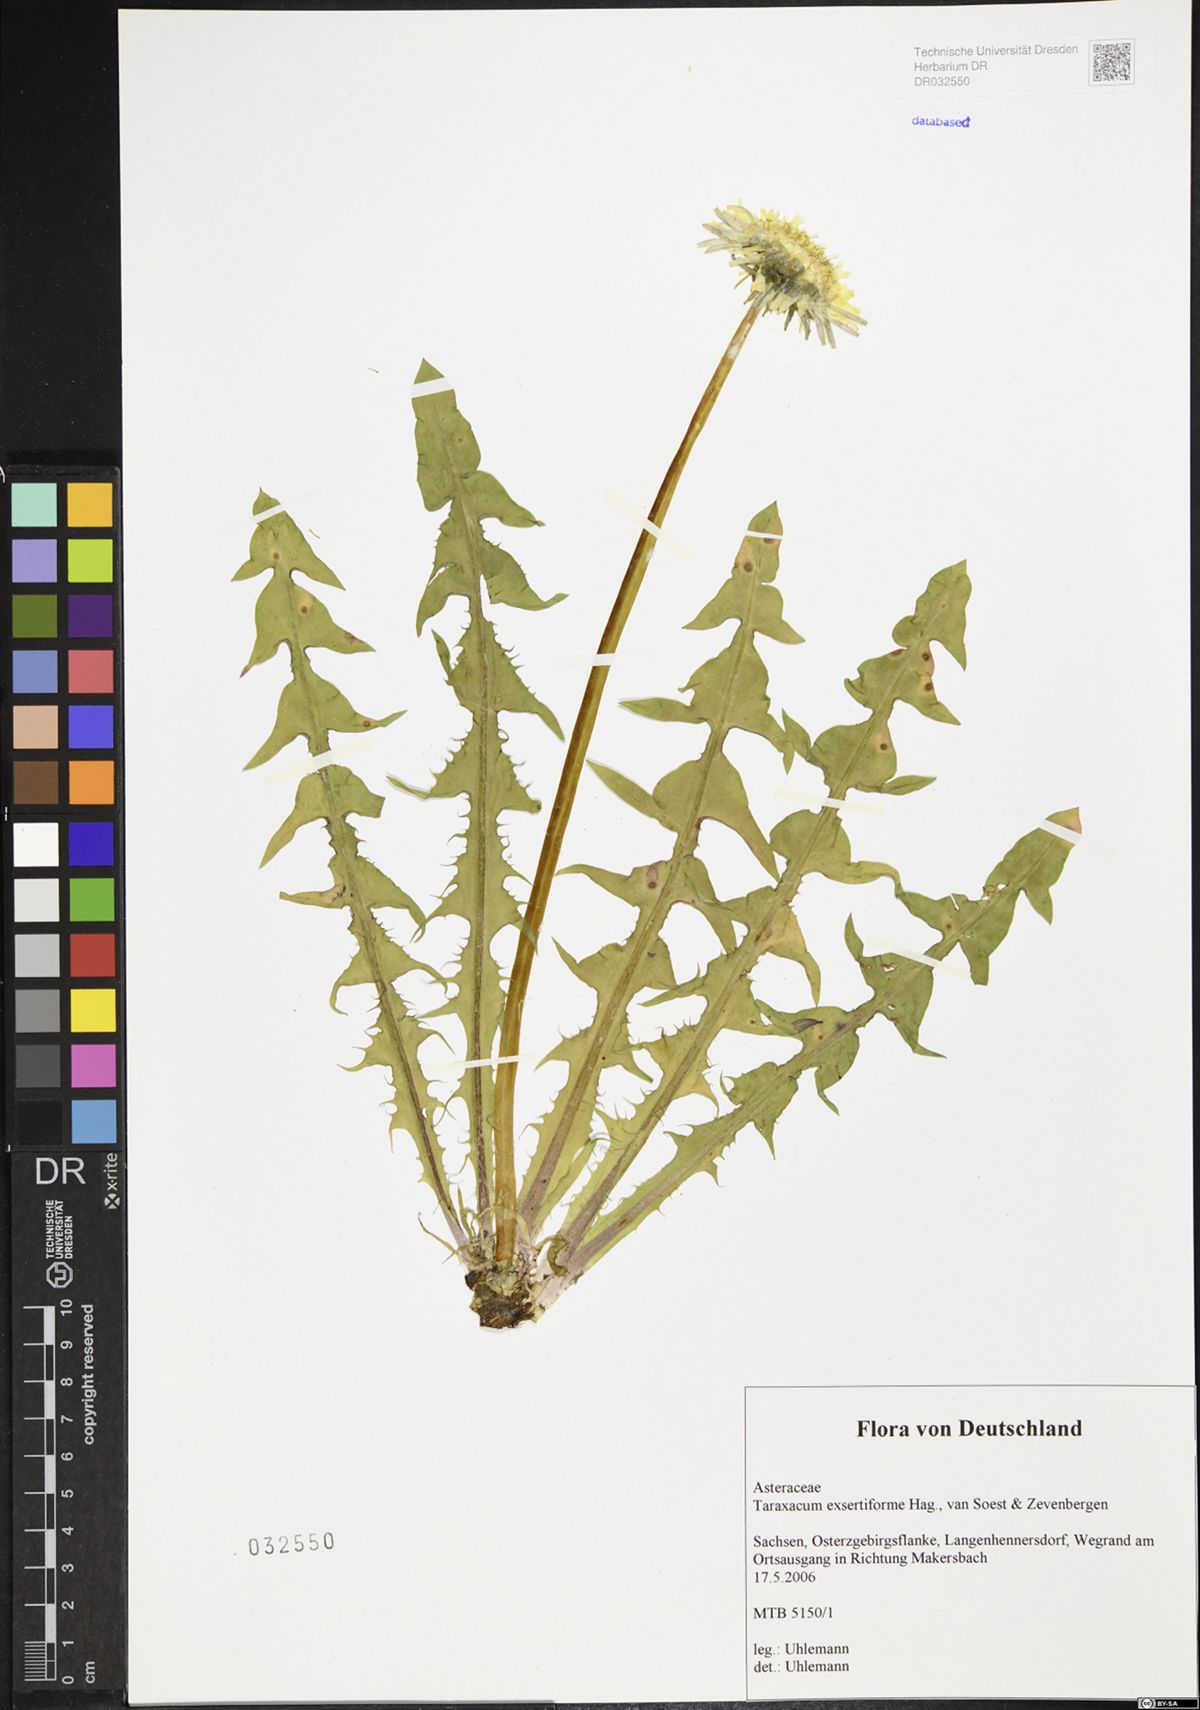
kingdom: Plantae
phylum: Tracheophyta
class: Magnoliopsida
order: Asterales
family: Asteraceae
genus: Taraxacum
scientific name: Taraxacum exsertiforme
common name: Erect-bracted dandelion
